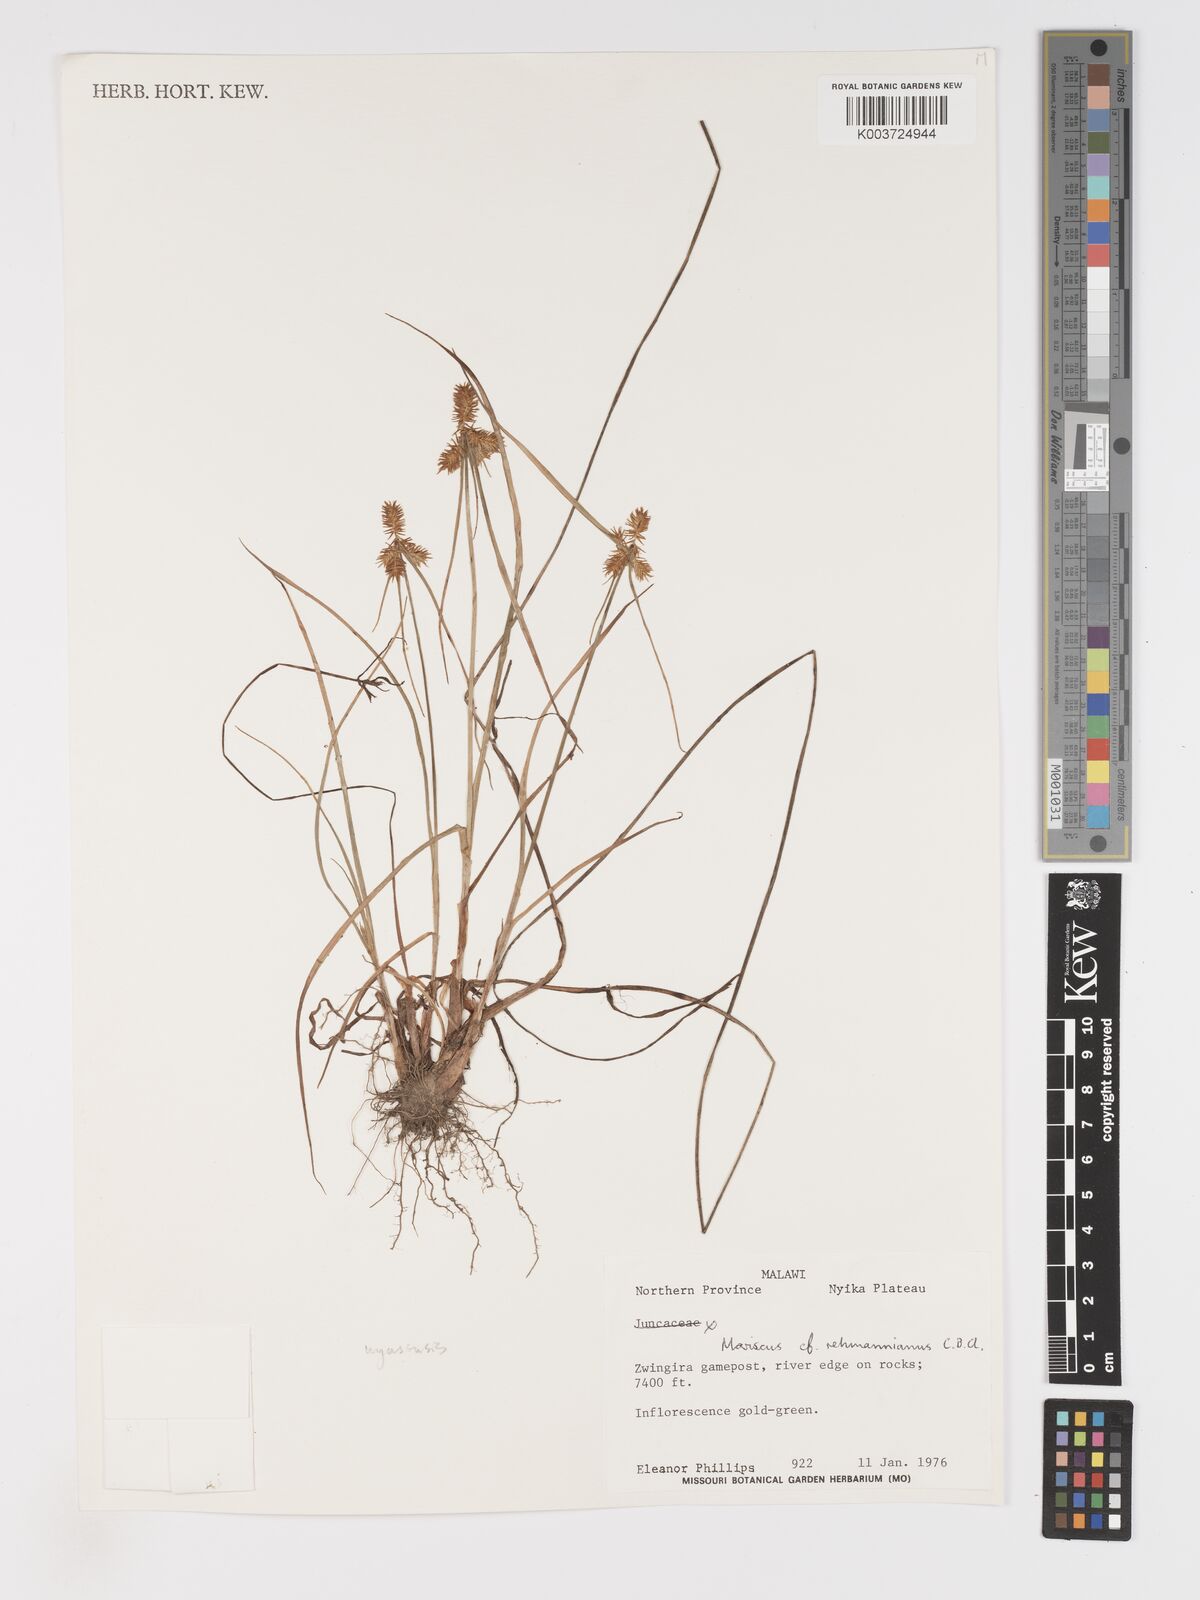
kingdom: Plantae
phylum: Tracheophyta
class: Liliopsida
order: Poales
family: Cyperaceae
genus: Cyperus
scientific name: Cyperus indecorus
